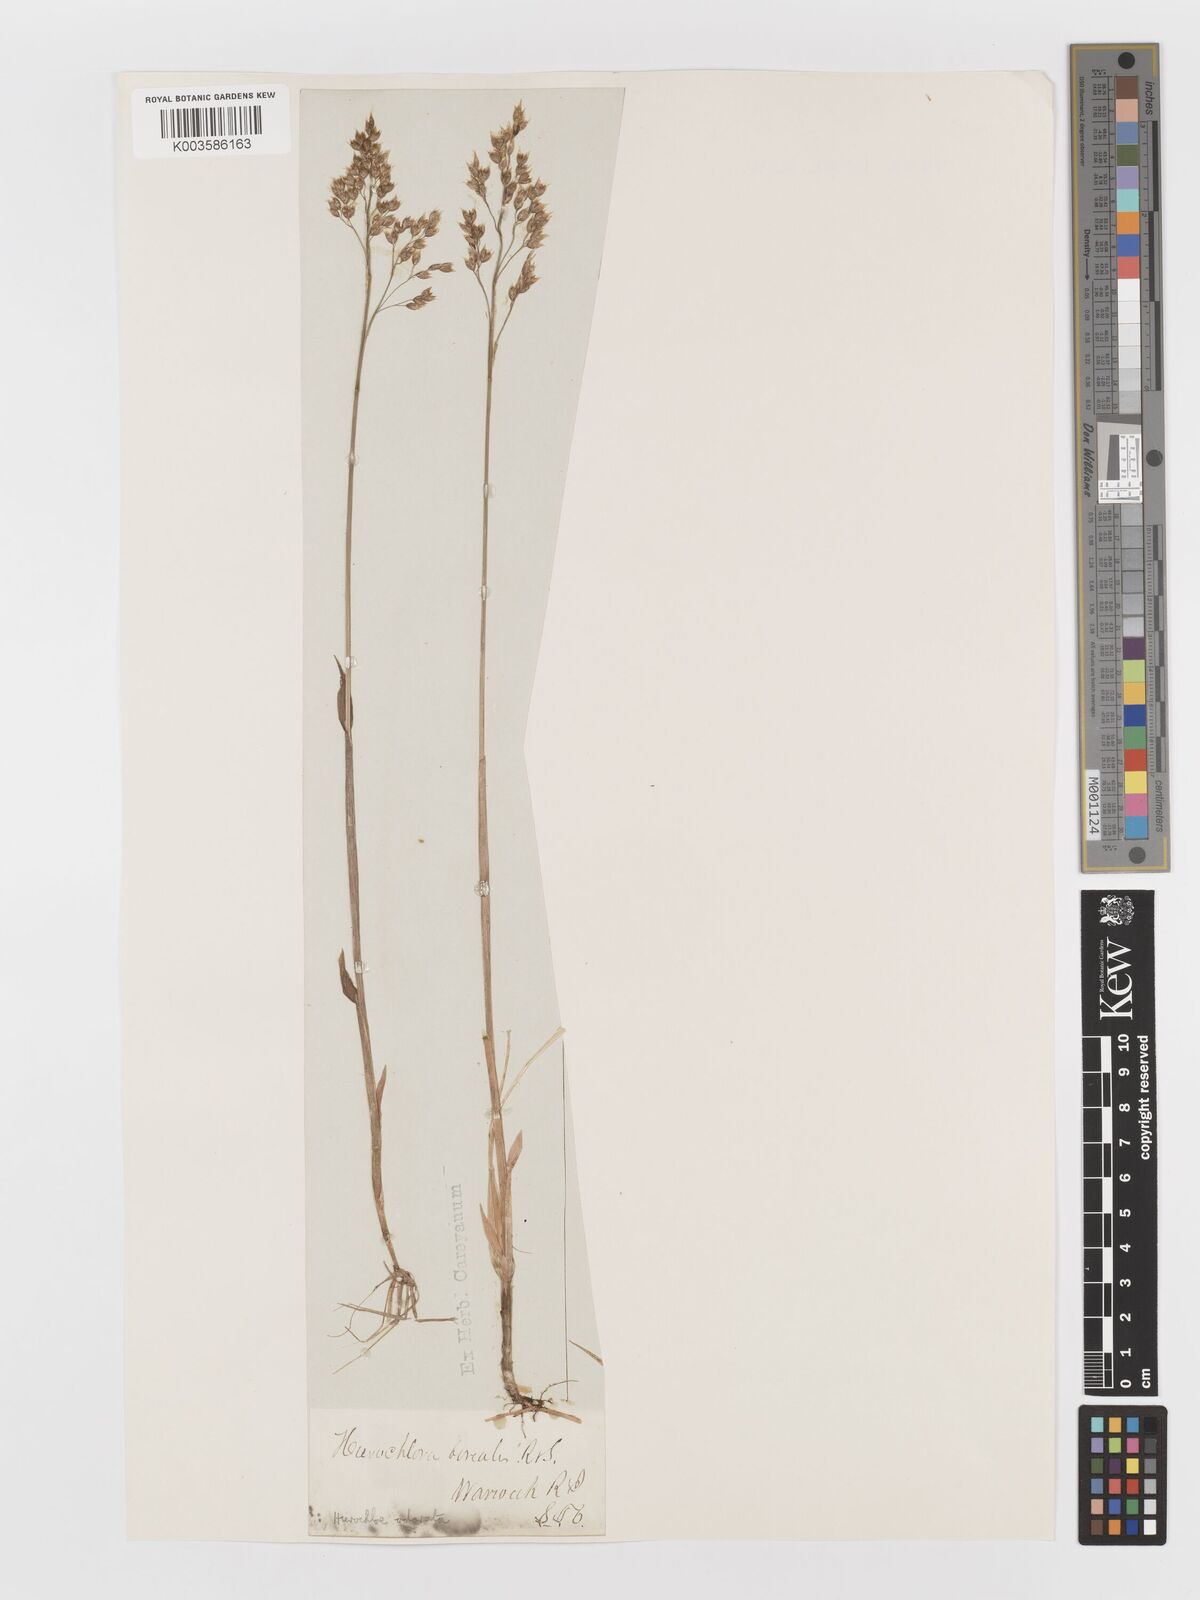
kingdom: Plantae
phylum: Tracheophyta
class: Liliopsida
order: Poales
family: Poaceae
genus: Anthoxanthum
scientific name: Anthoxanthum nitens
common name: Holy grass
